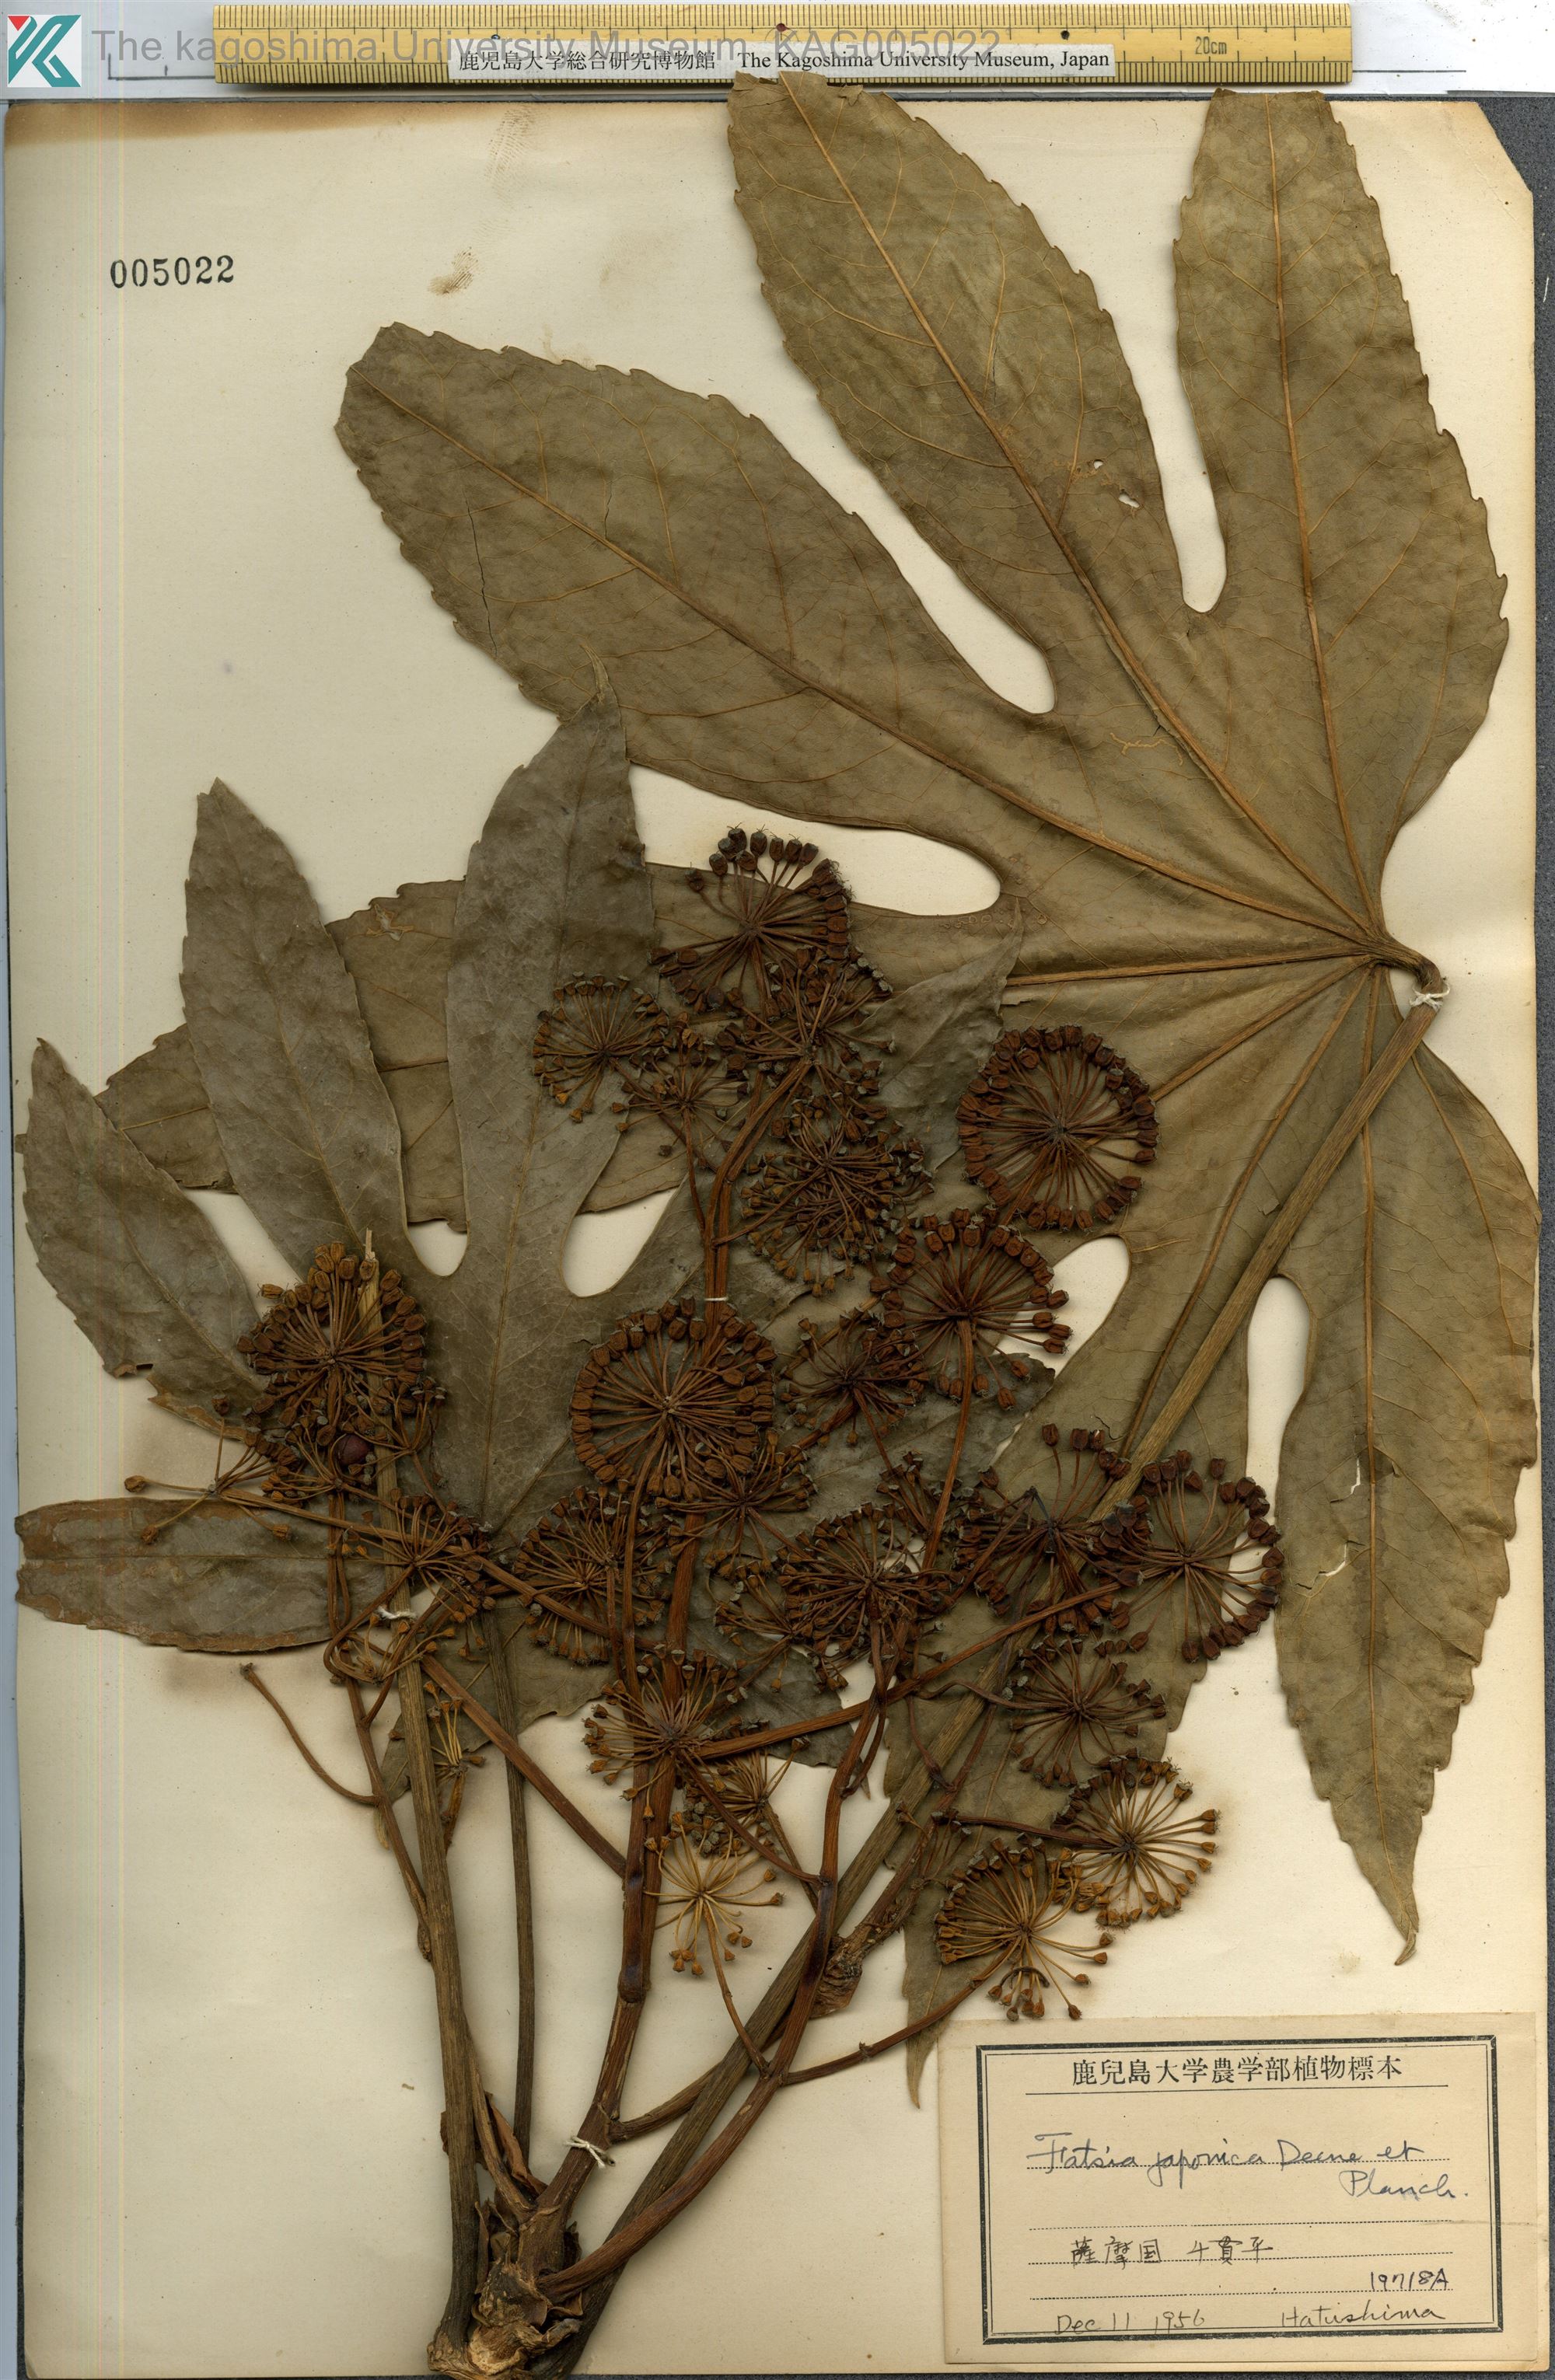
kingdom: Plantae
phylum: Tracheophyta
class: Magnoliopsida
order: Apiales
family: Araliaceae
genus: Fatsia
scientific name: Fatsia japonica
